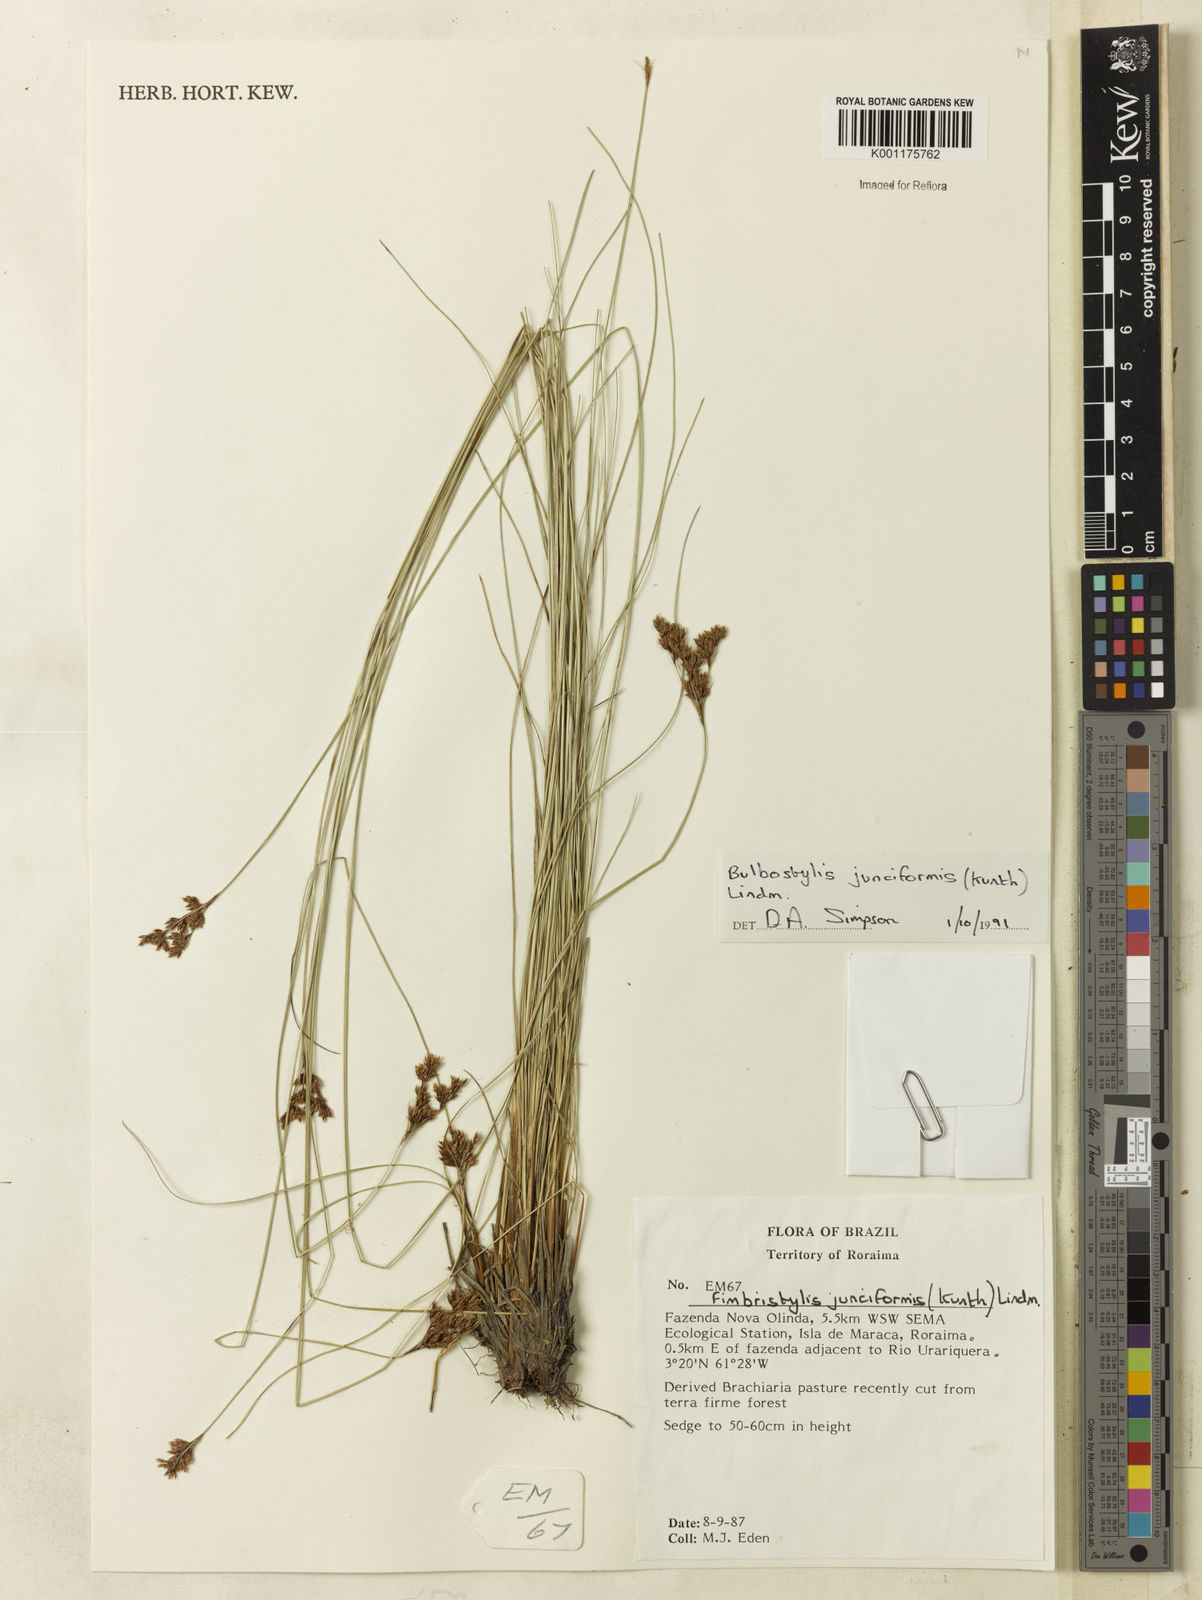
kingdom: Plantae
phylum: Tracheophyta
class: Liliopsida
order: Poales
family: Cyperaceae
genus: Bulbostylis
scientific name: Bulbostylis junciformis
